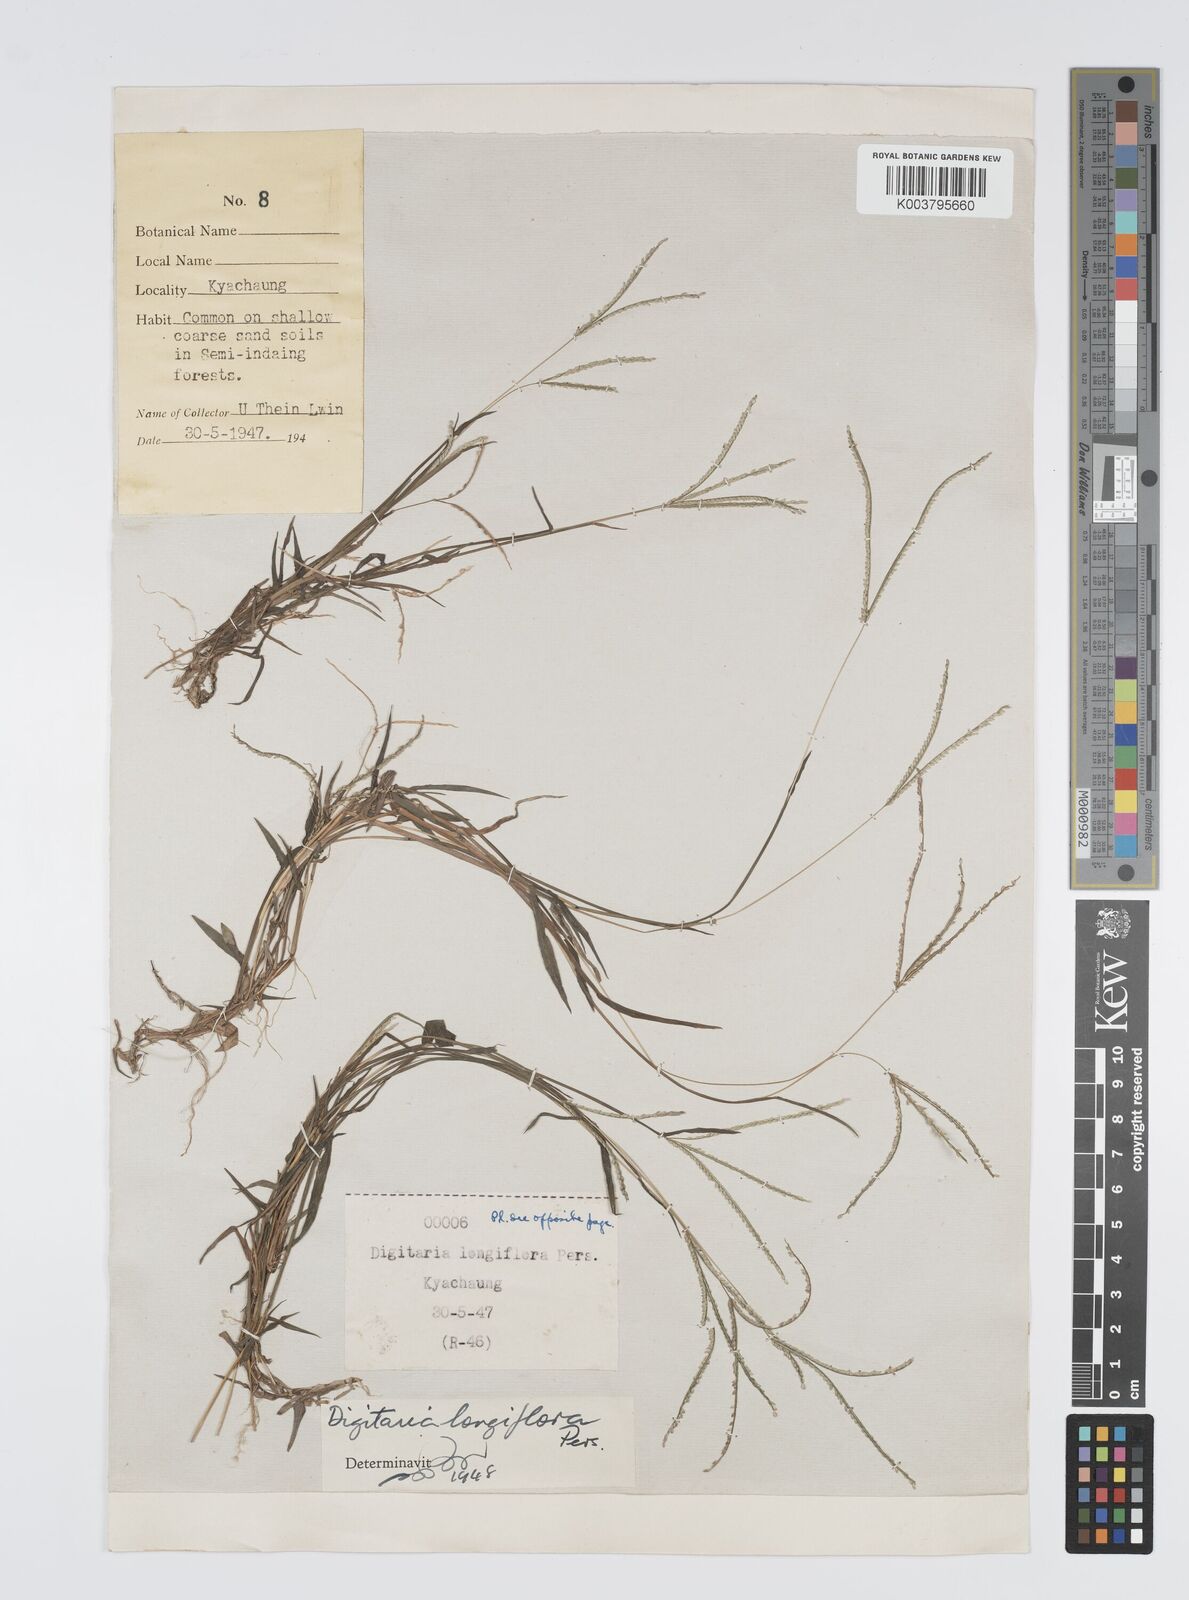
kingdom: Plantae
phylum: Tracheophyta
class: Liliopsida
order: Poales
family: Poaceae
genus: Digitaria
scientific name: Digitaria longiflora
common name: Wire crabgrass
